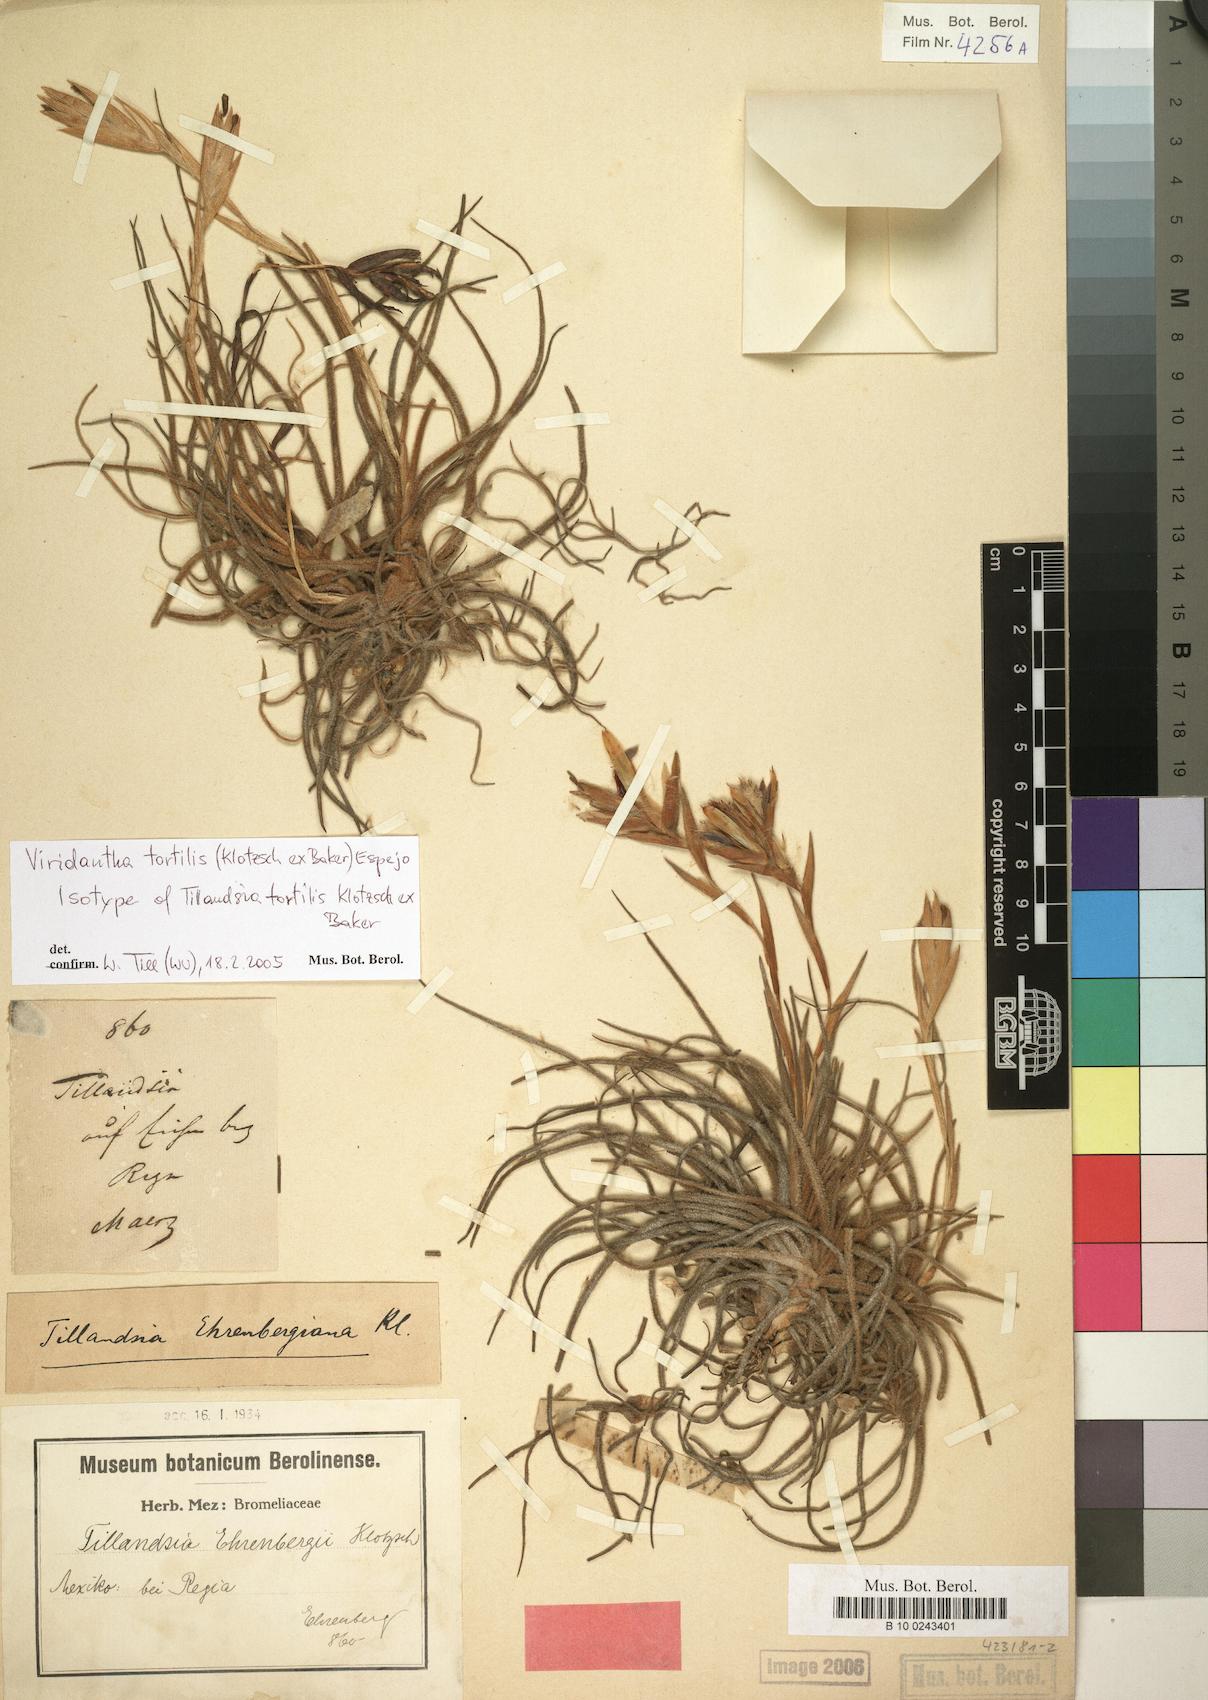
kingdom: Plantae
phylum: Tracheophyta
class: Liliopsida
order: Poales
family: Bromeliaceae
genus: Tillandsia
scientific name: Tillandsia tortilis
